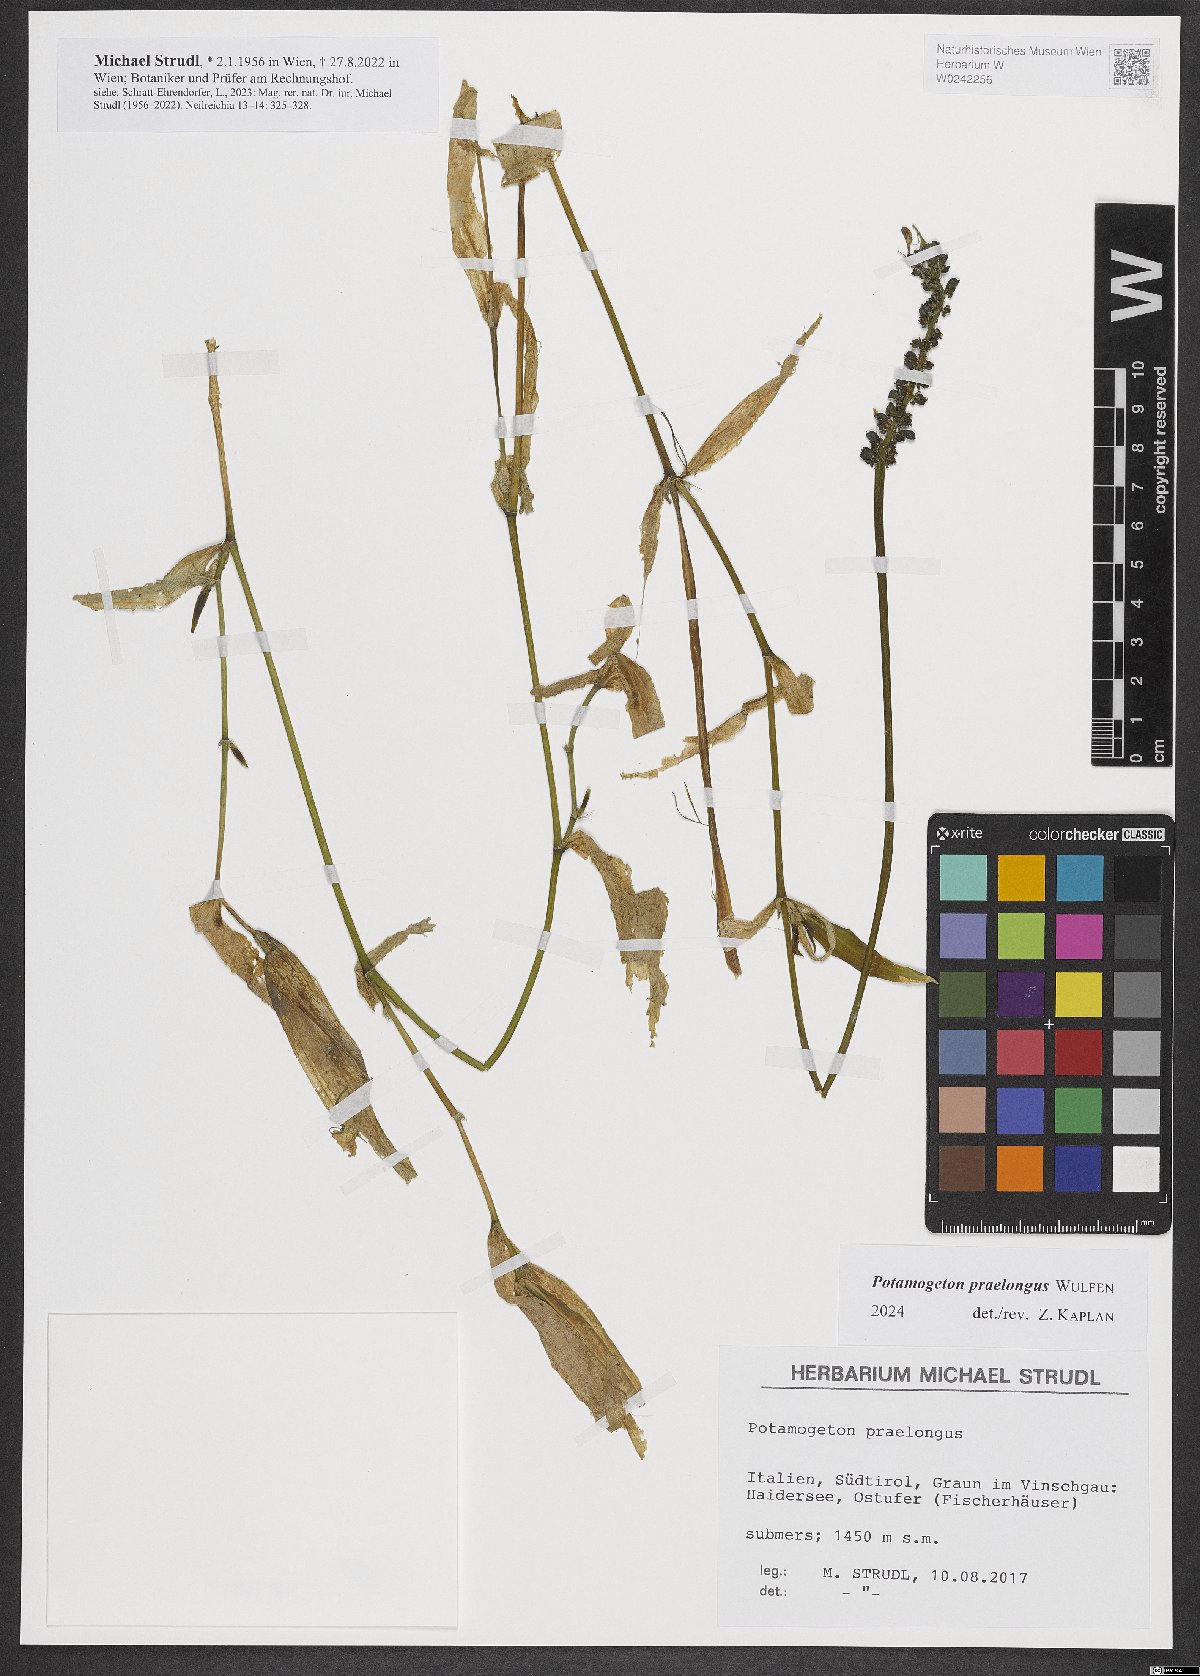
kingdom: Plantae
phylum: Tracheophyta
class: Liliopsida
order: Alismatales
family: Potamogetonaceae
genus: Potamogeton
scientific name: Potamogeton praelongus
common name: Long-stalked pondweed
